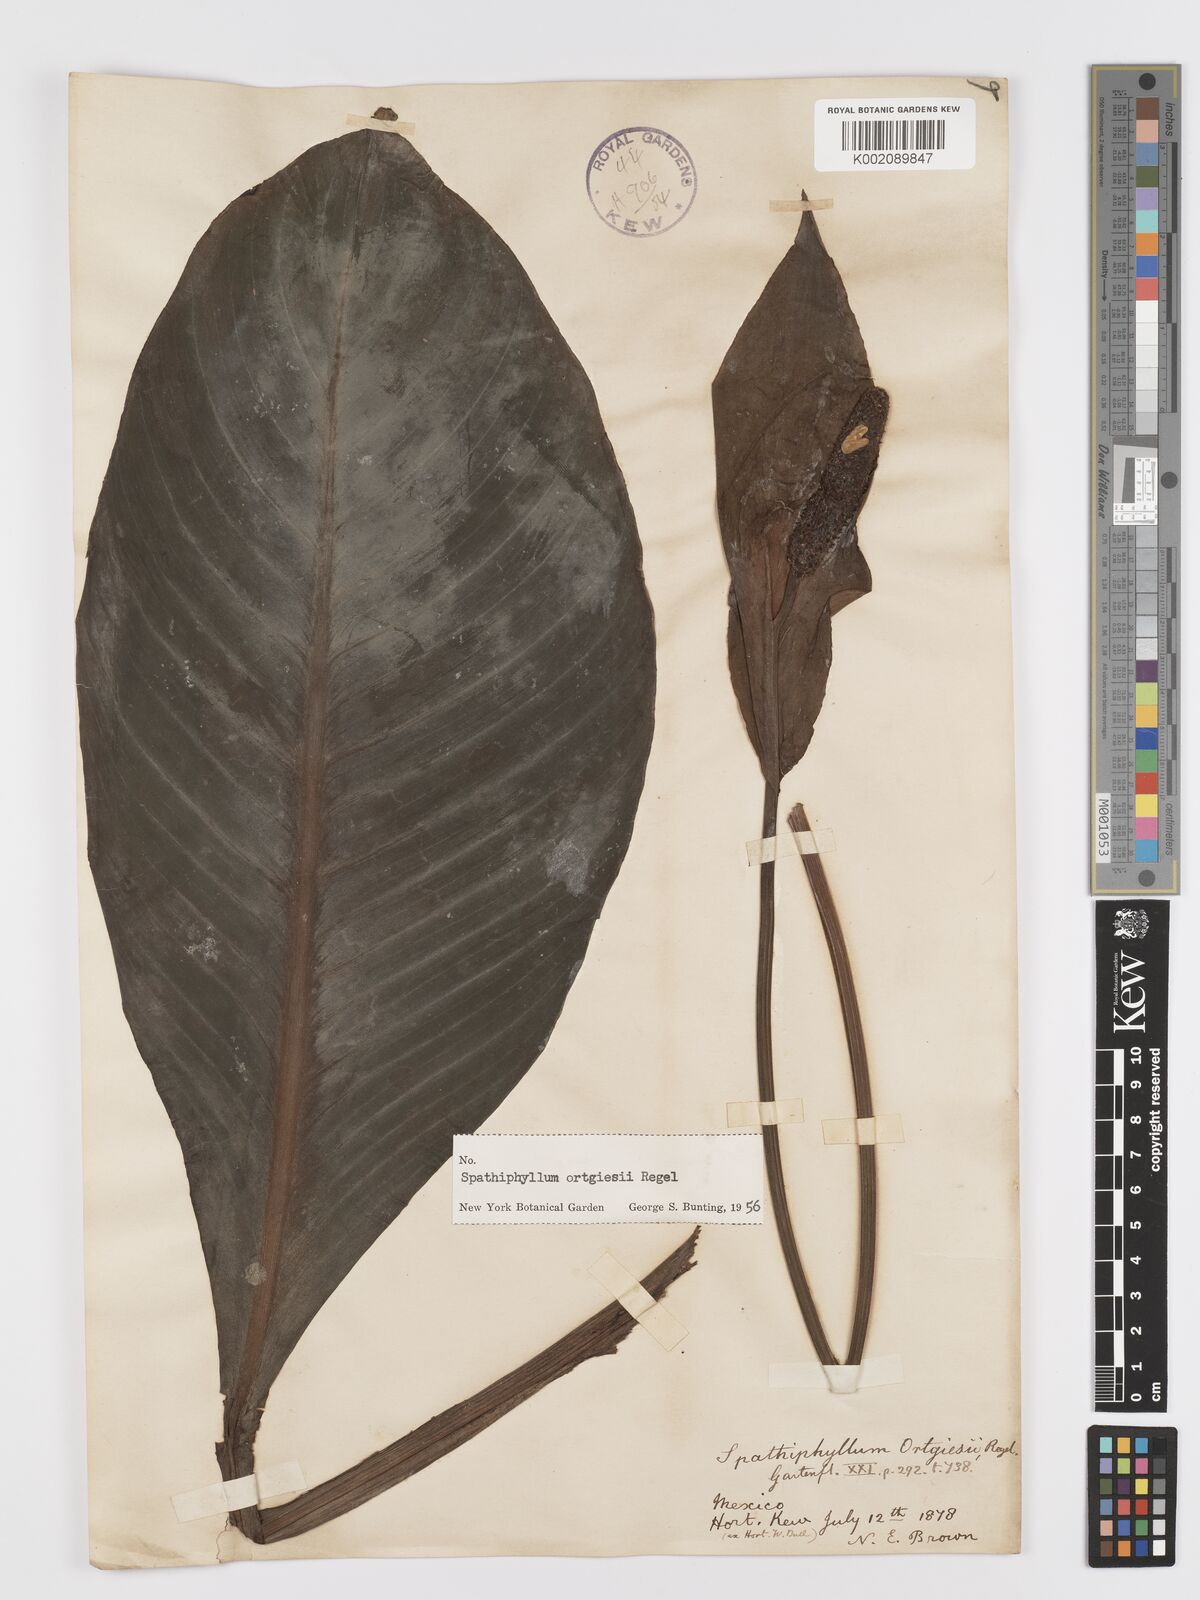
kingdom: Plantae
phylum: Tracheophyta
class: Liliopsida
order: Alismatales
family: Araceae
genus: Spathiphyllum
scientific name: Spathiphyllum ortgiesii
